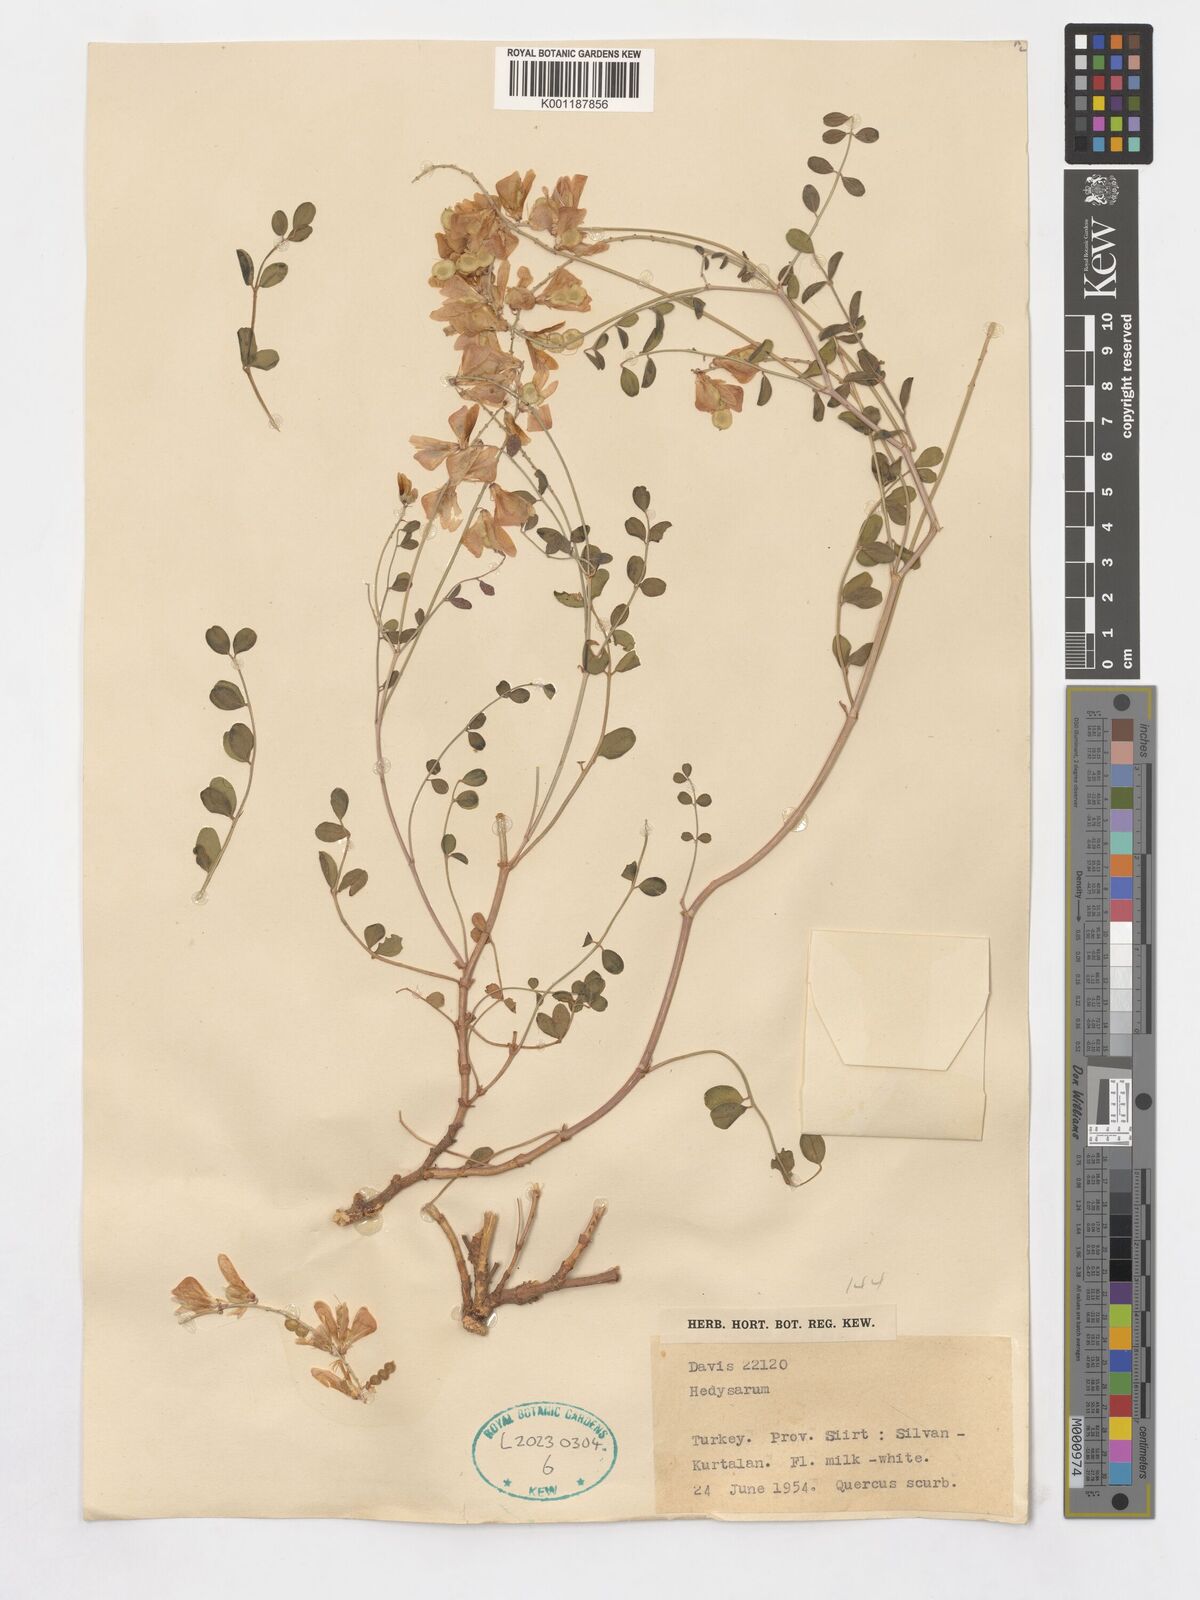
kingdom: Plantae
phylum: Tracheophyta
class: Magnoliopsida
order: Fabales
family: Fabaceae
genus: Hedysarum
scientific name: Hedysarum
